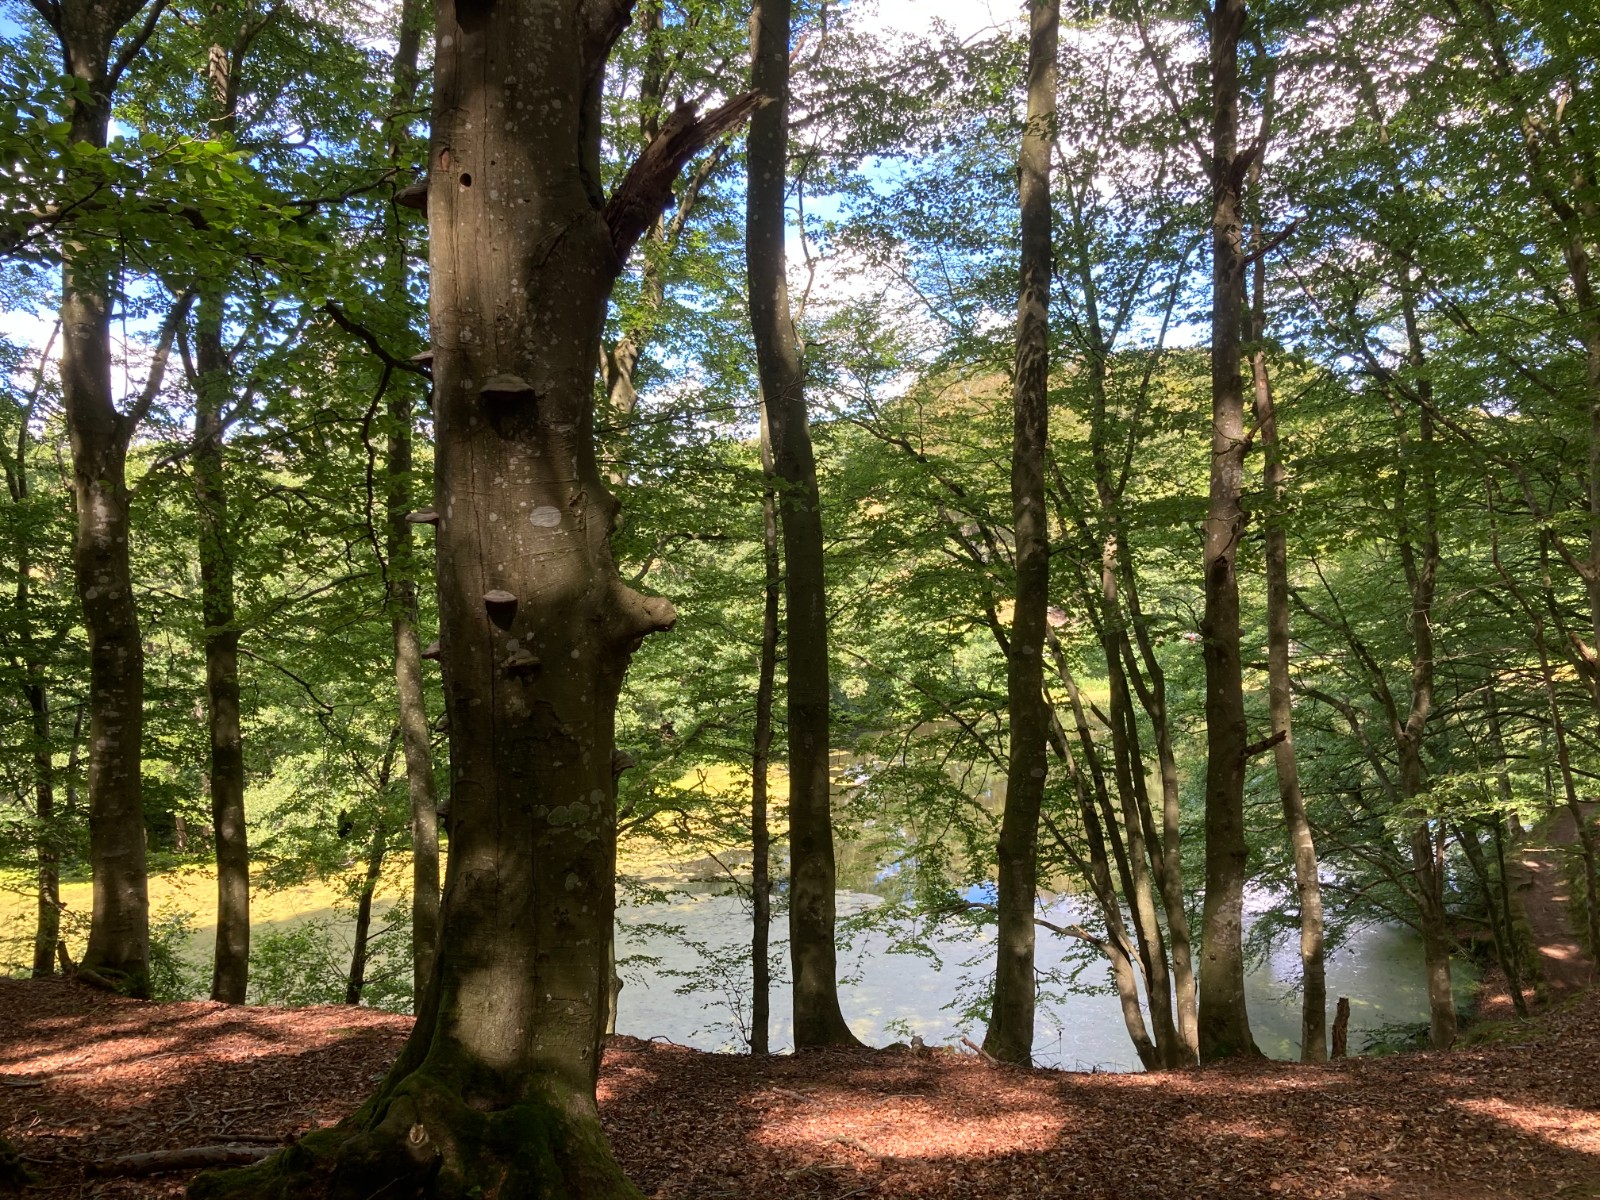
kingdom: Fungi
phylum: Basidiomycota
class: Agaricomycetes
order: Polyporales
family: Polyporaceae
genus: Fomes
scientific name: Fomes fomentarius
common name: tøndersvamp
